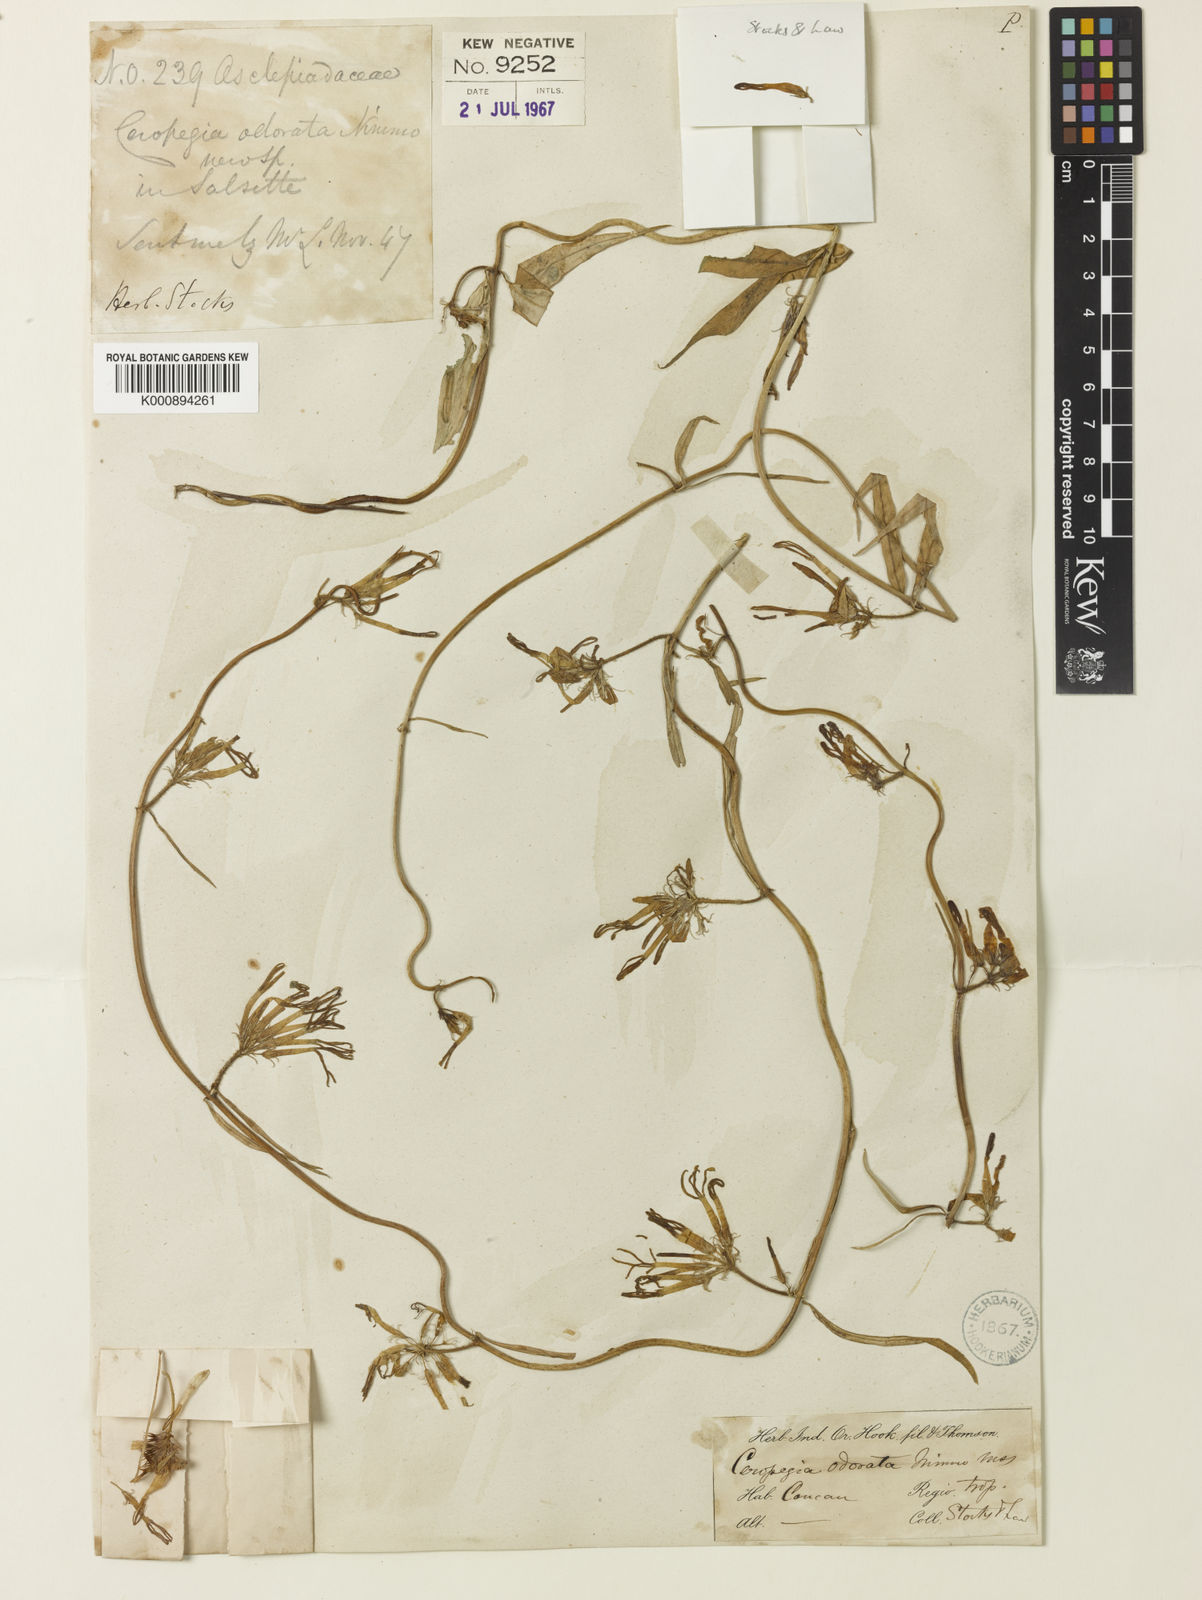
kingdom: Plantae
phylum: Tracheophyta
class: Magnoliopsida
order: Gentianales
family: Apocynaceae
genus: Ceropegia
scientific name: Ceropegia
